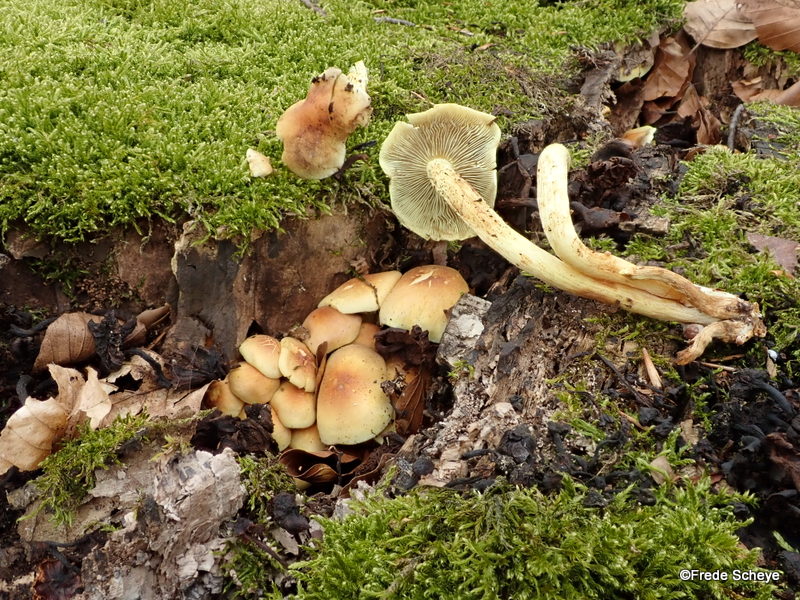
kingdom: Fungi
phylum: Basidiomycota
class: Agaricomycetes
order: Agaricales
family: Strophariaceae
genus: Hypholoma
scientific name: Hypholoma fasciculare
